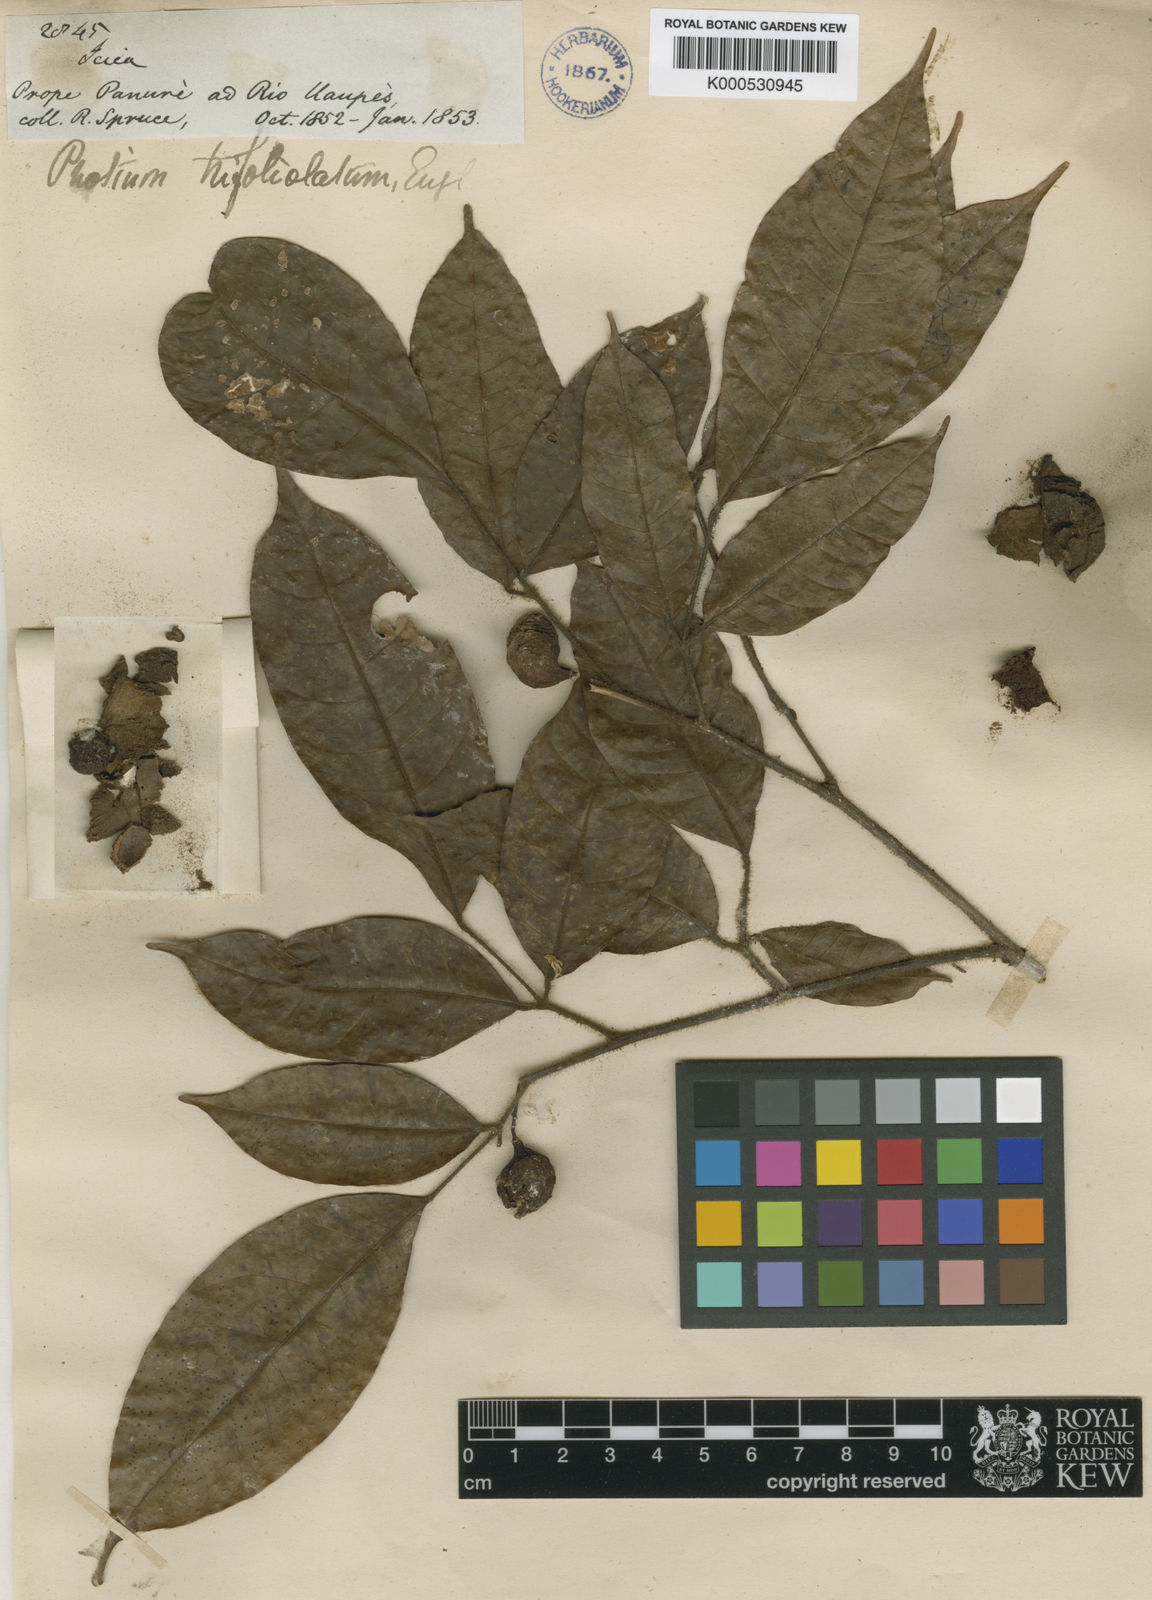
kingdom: Plantae
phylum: Tracheophyta
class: Magnoliopsida
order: Sapindales
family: Burseraceae
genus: Protium
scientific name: Protium trifoliolatum
